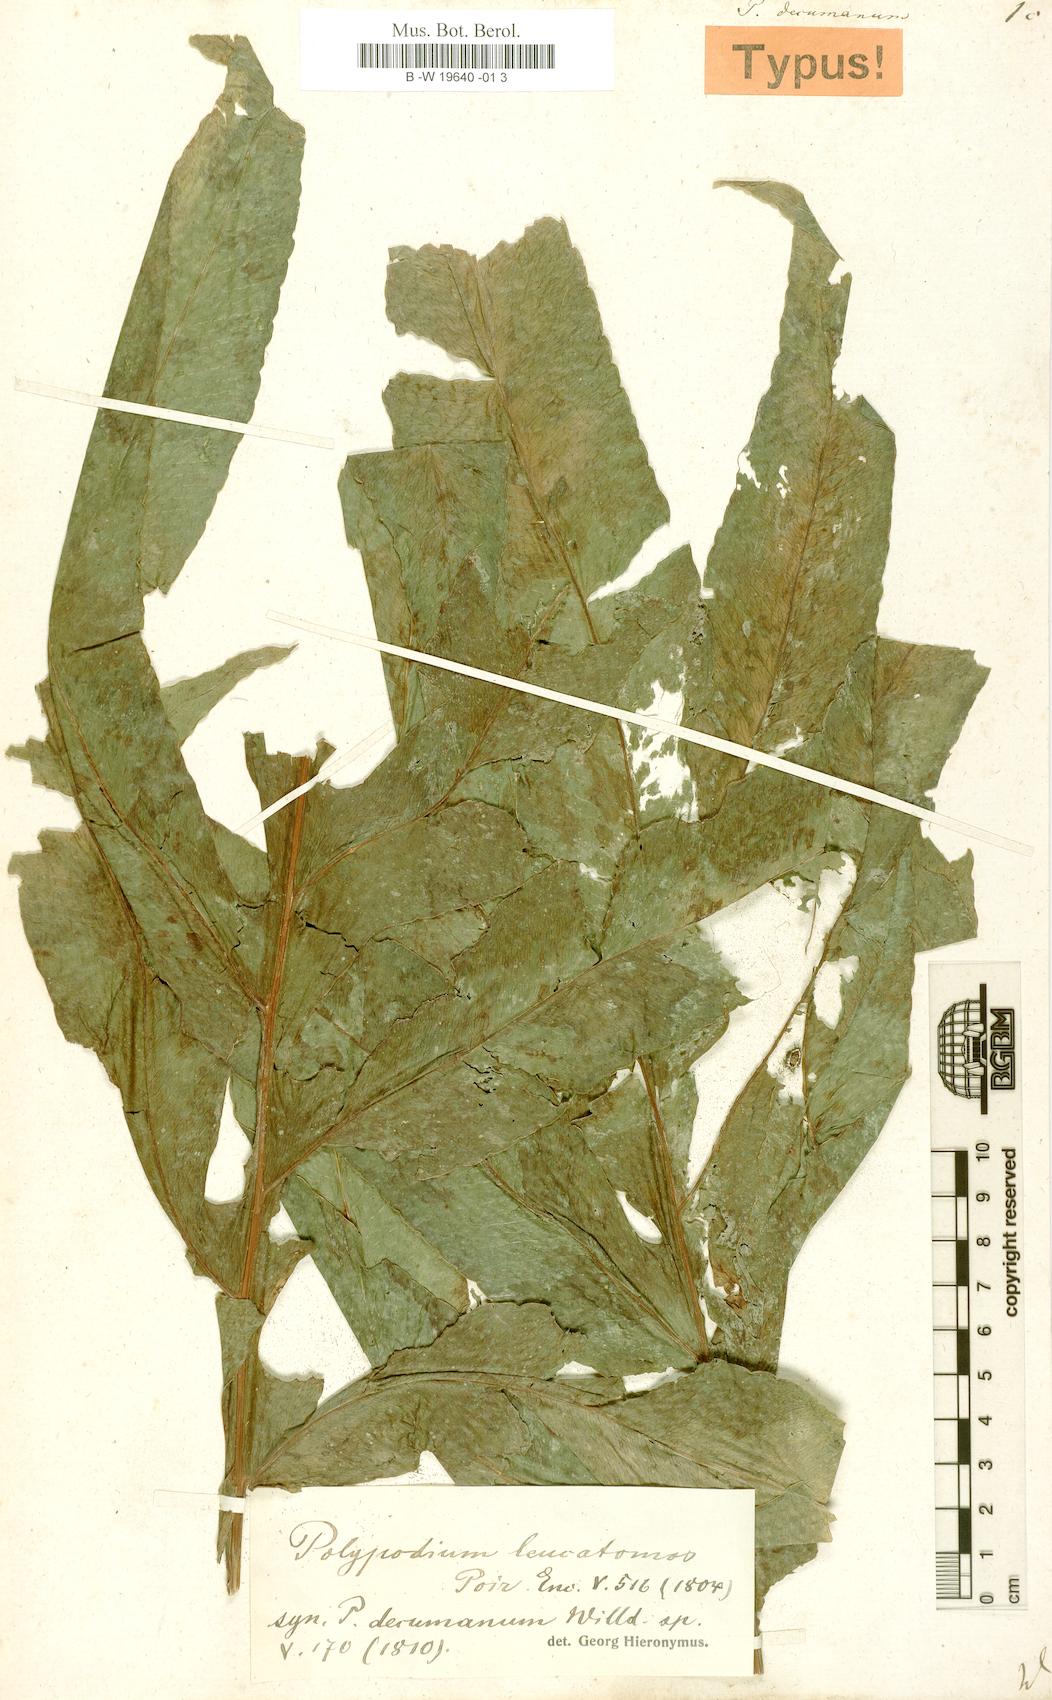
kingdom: Plantae
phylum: Tracheophyta
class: Polypodiopsida
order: Polypodiales
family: Polypodiaceae
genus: Phlebodium
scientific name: Phlebodium decumanum
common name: Golden polypod
